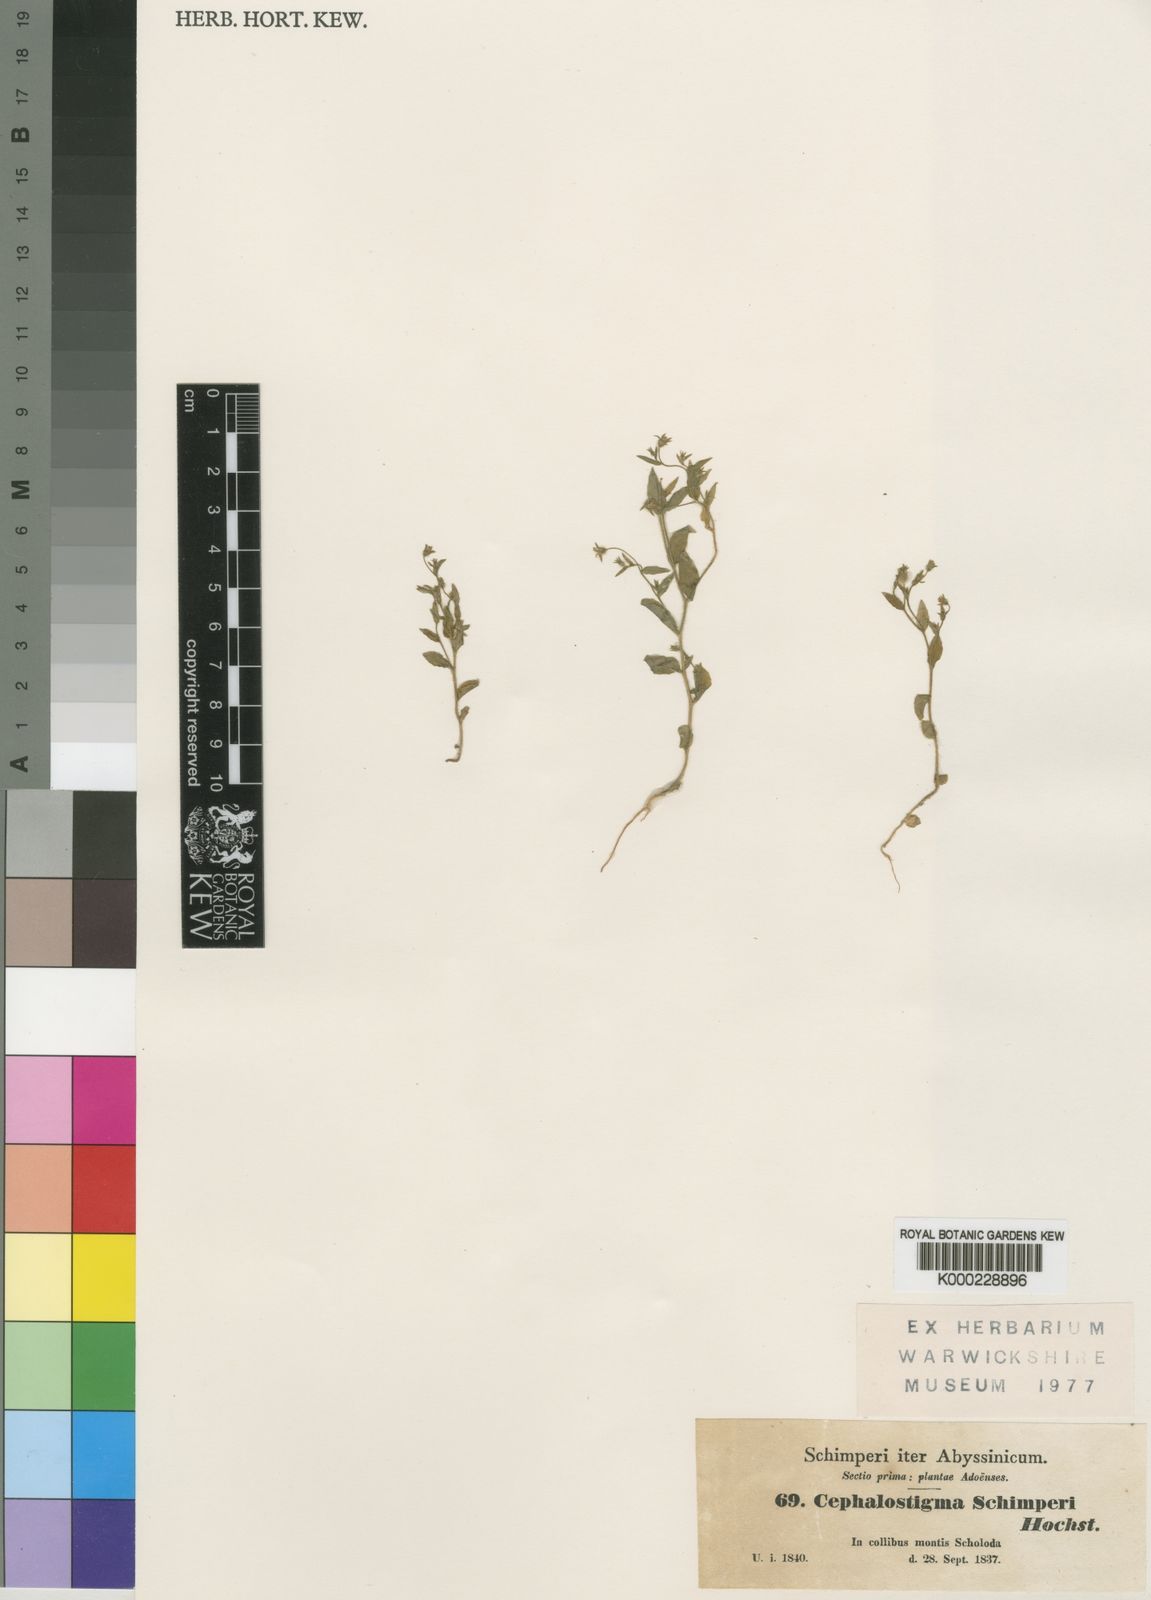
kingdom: Plantae
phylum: Tracheophyta
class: Magnoliopsida
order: Asterales
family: Campanulaceae
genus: Wahlenbergia
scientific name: Wahlenbergia erecta
